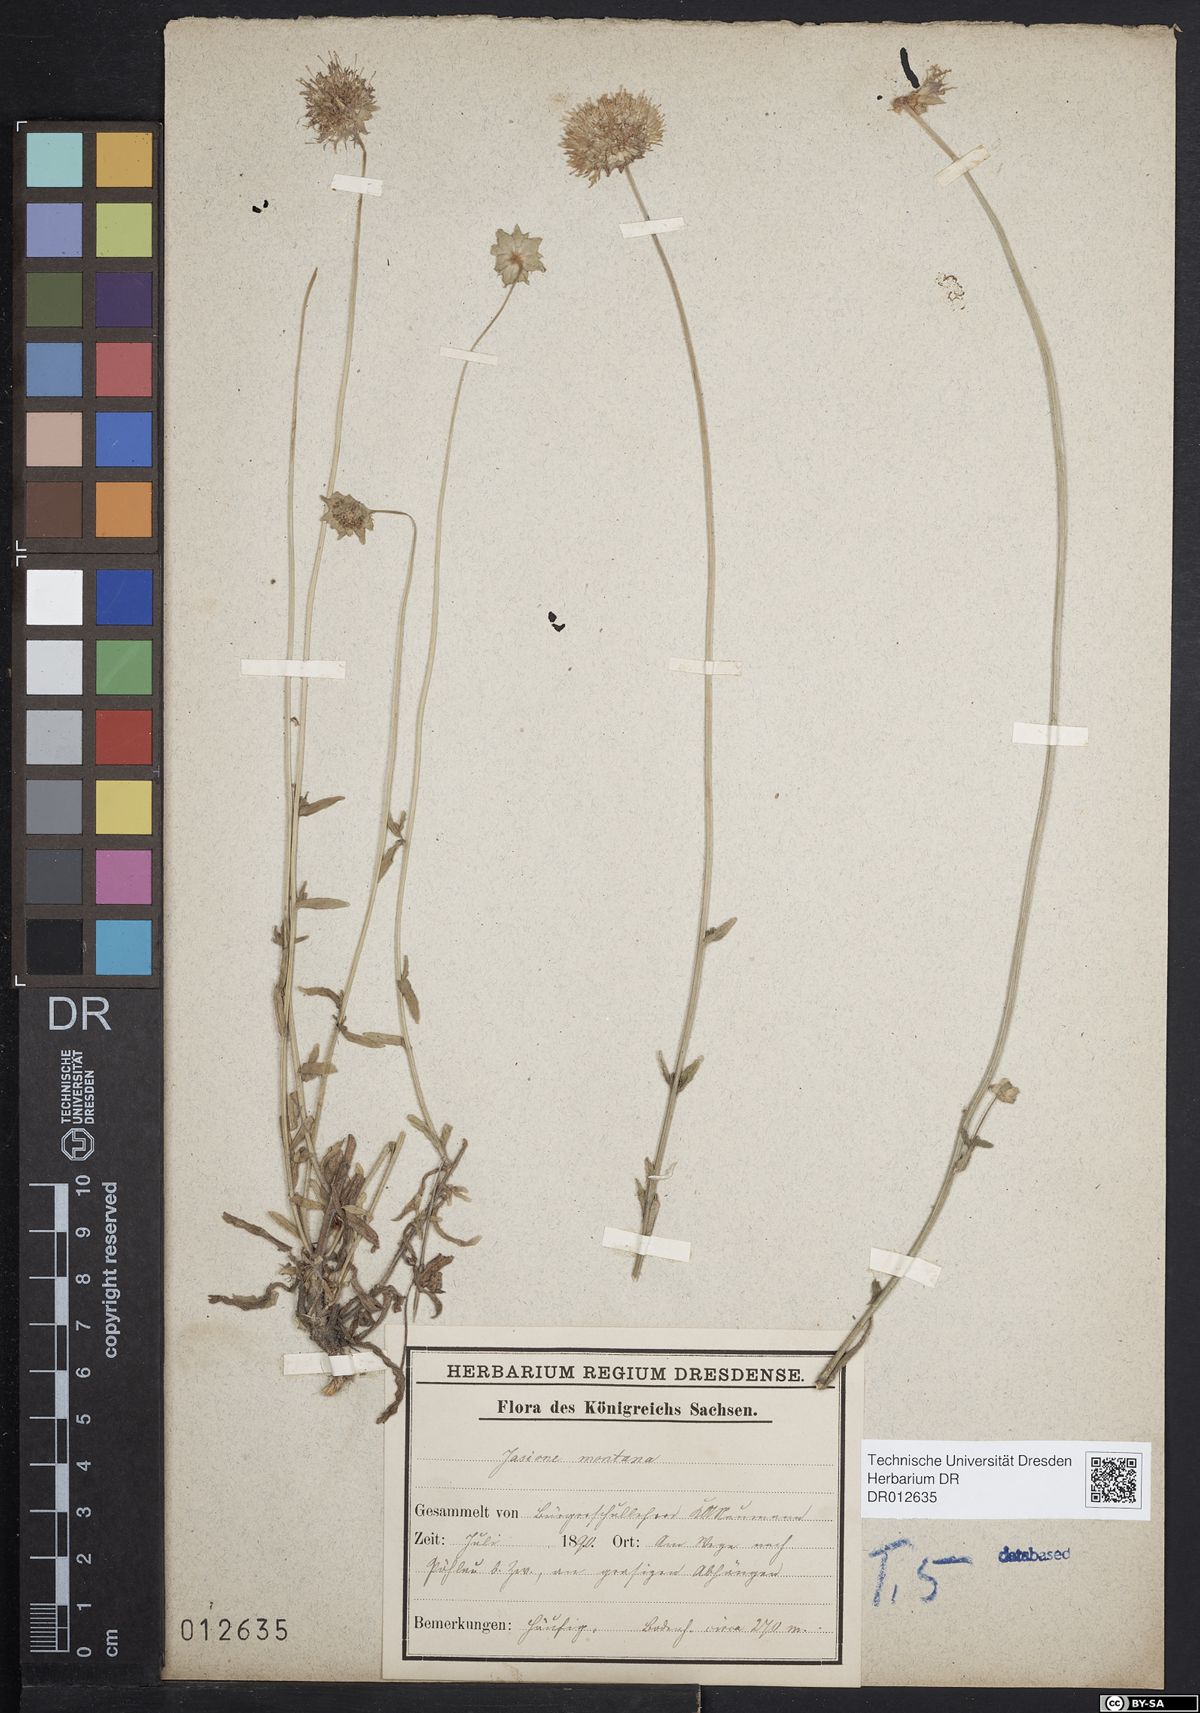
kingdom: Plantae
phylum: Tracheophyta
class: Magnoliopsida
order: Asterales
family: Campanulaceae
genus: Jasione
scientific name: Jasione montana
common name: Sheep's-bit
